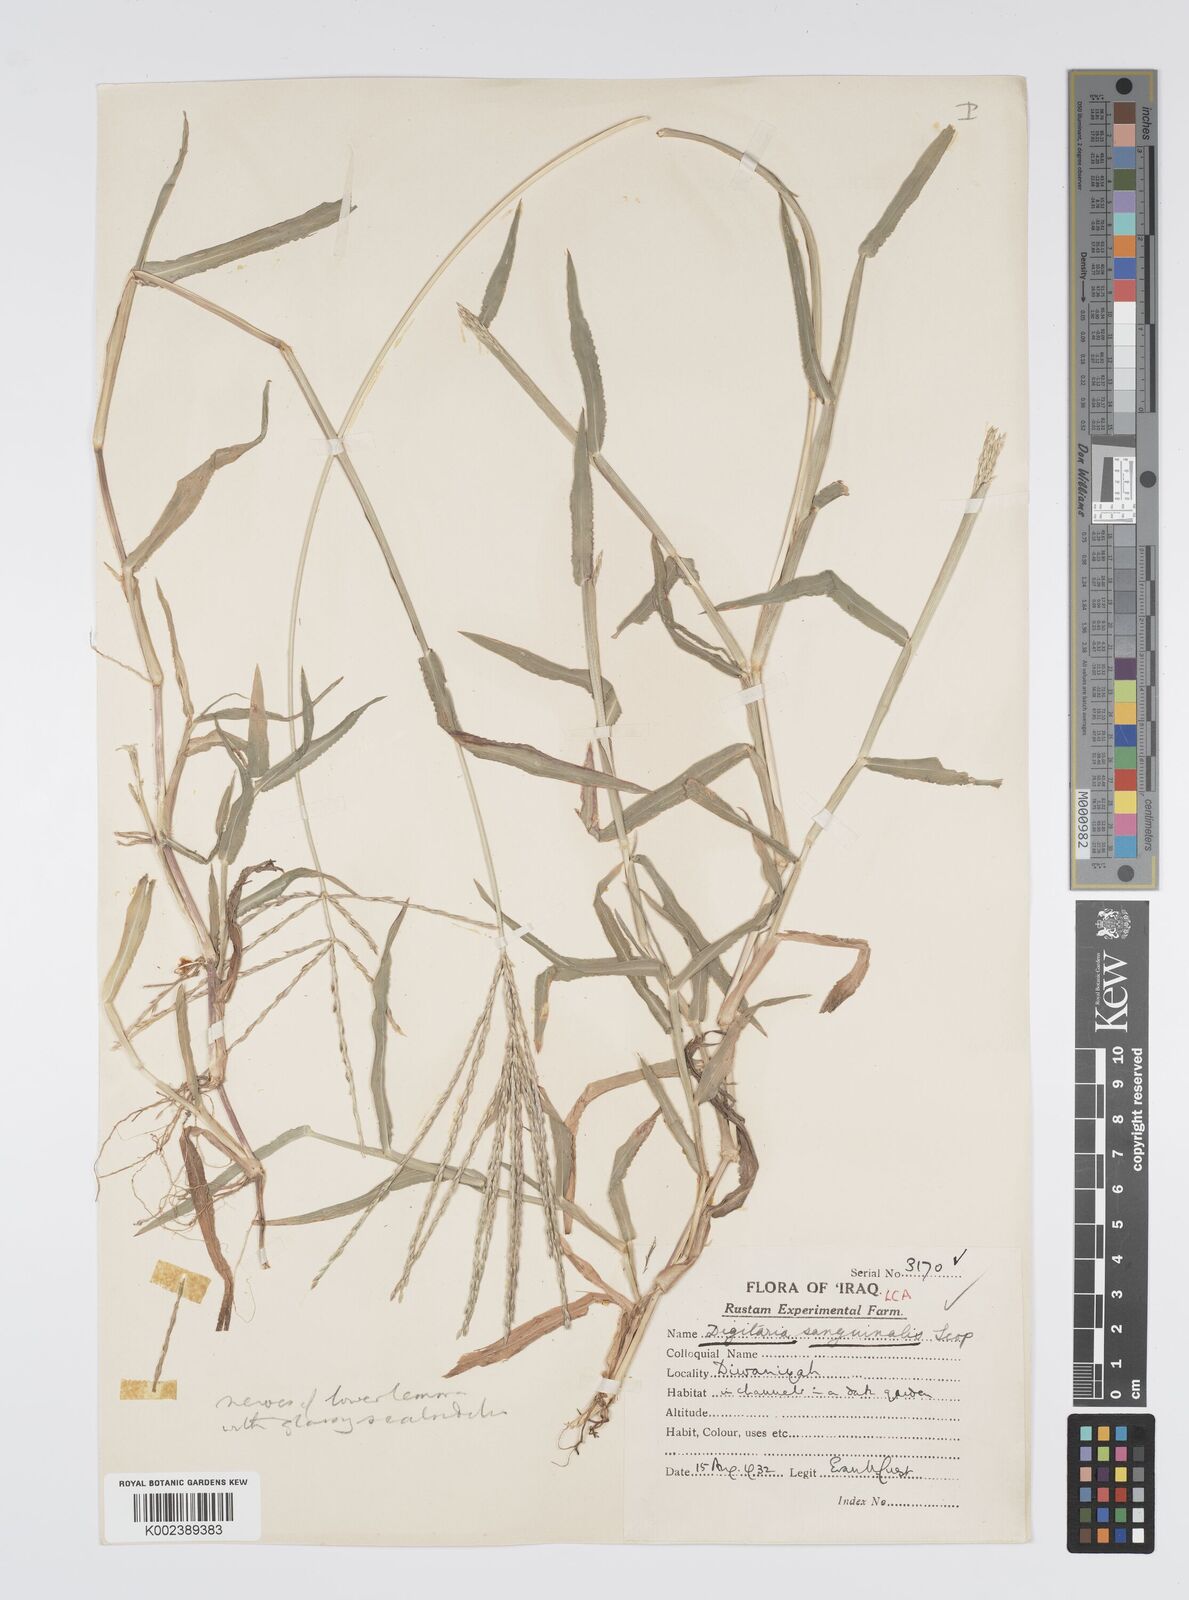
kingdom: Plantae
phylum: Tracheophyta
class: Liliopsida
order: Poales
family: Poaceae
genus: Digitaria
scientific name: Digitaria sanguinalis
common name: Hairy crabgrass
